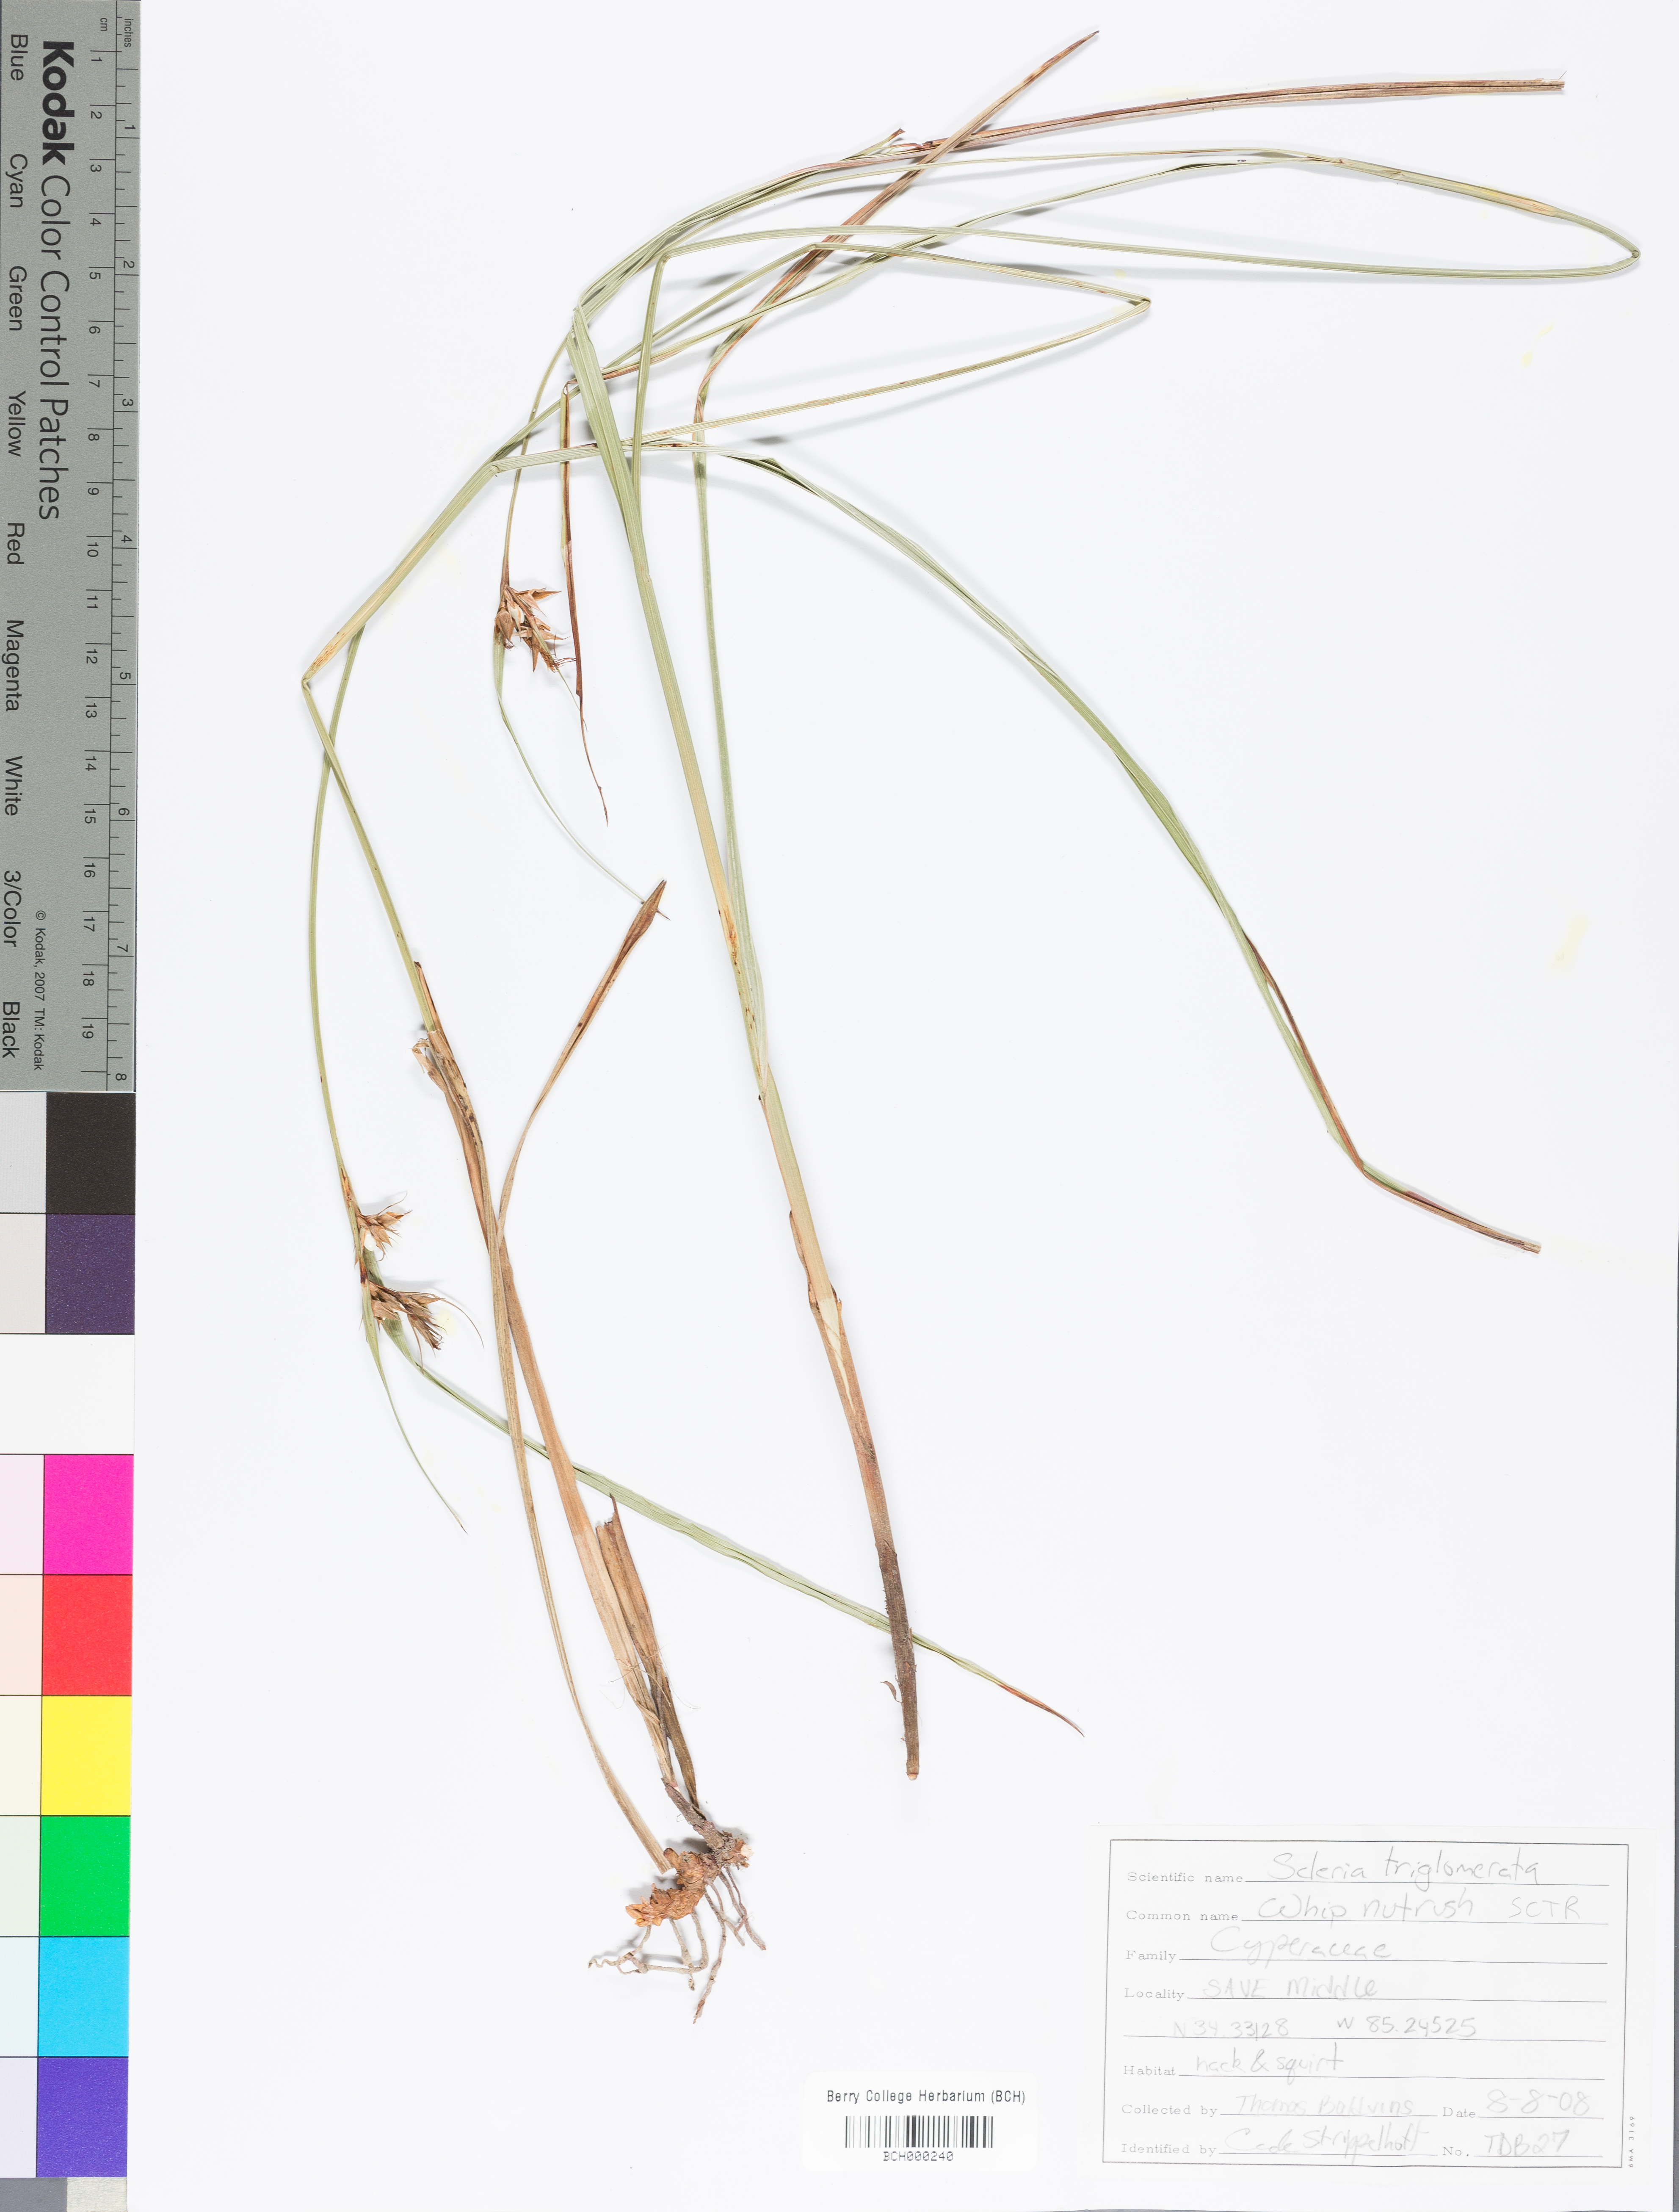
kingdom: Plantae
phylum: Tracheophyta
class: Liliopsida
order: Poales
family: Cyperaceae
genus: Scleria
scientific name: Scleria triglomerata
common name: Whip nutrush
